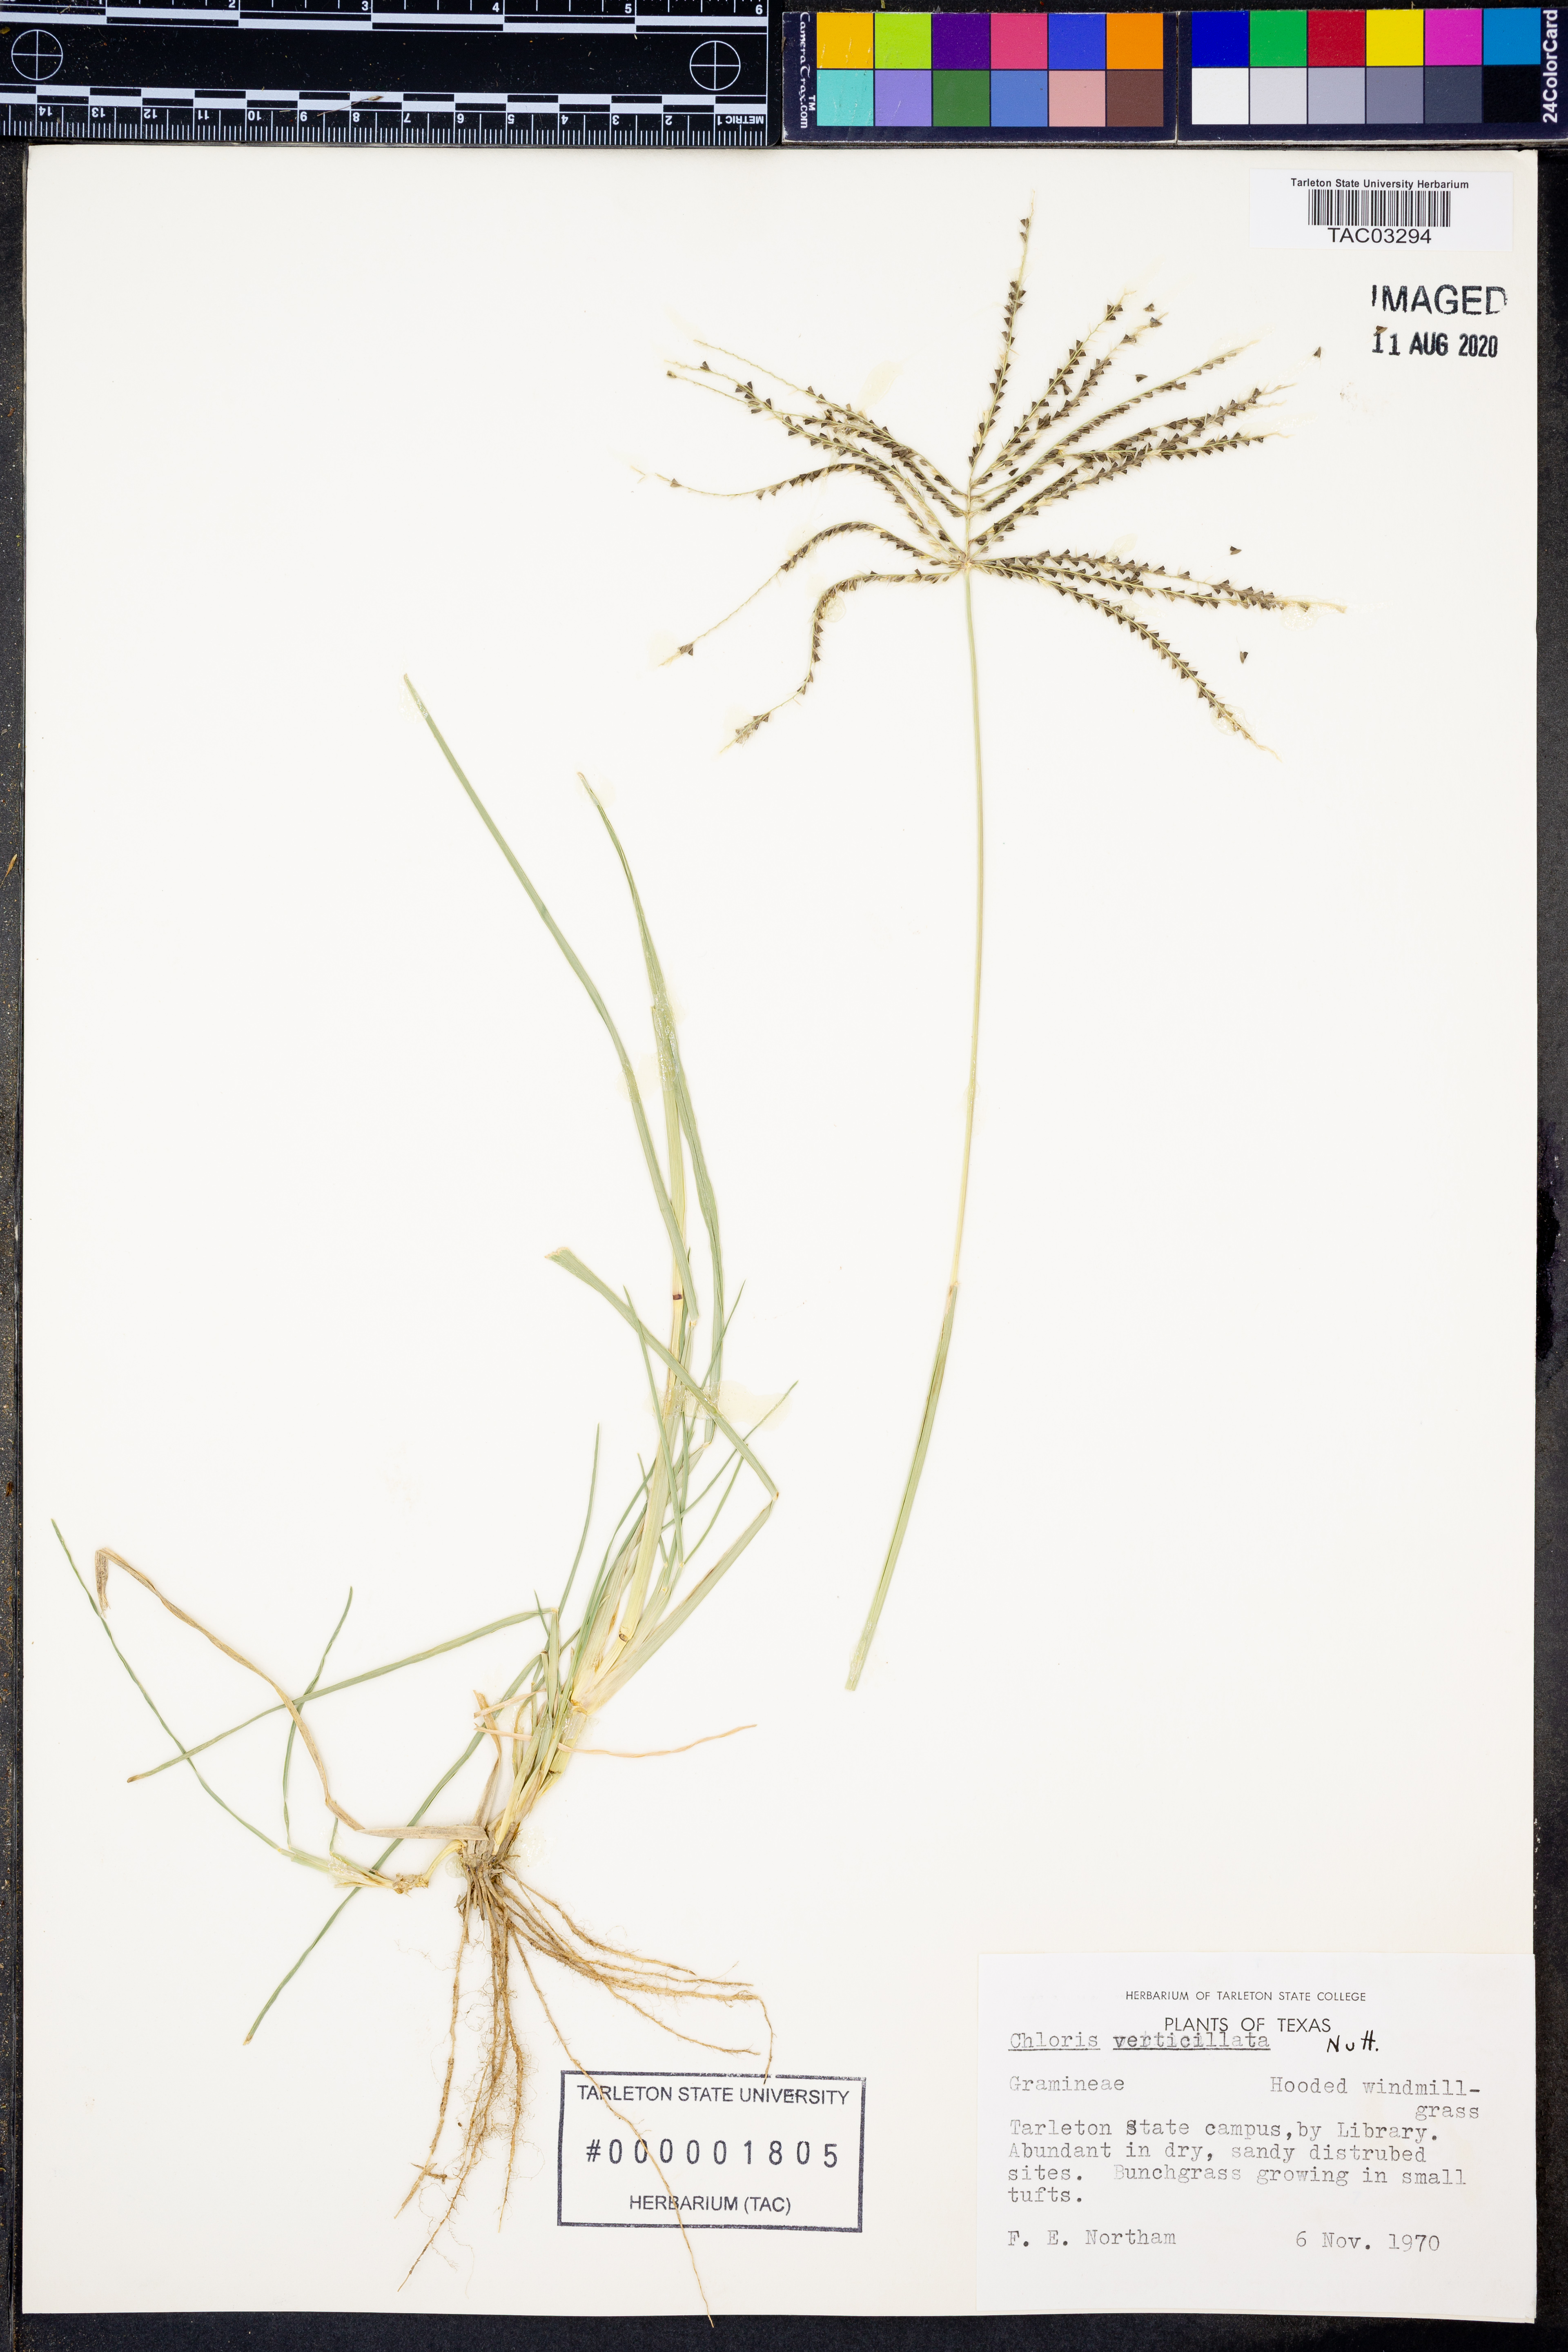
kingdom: Plantae
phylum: Tracheophyta
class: Liliopsida
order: Poales
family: Poaceae
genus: Chloris
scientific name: Chloris verticillata
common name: Tumble windmill grass
